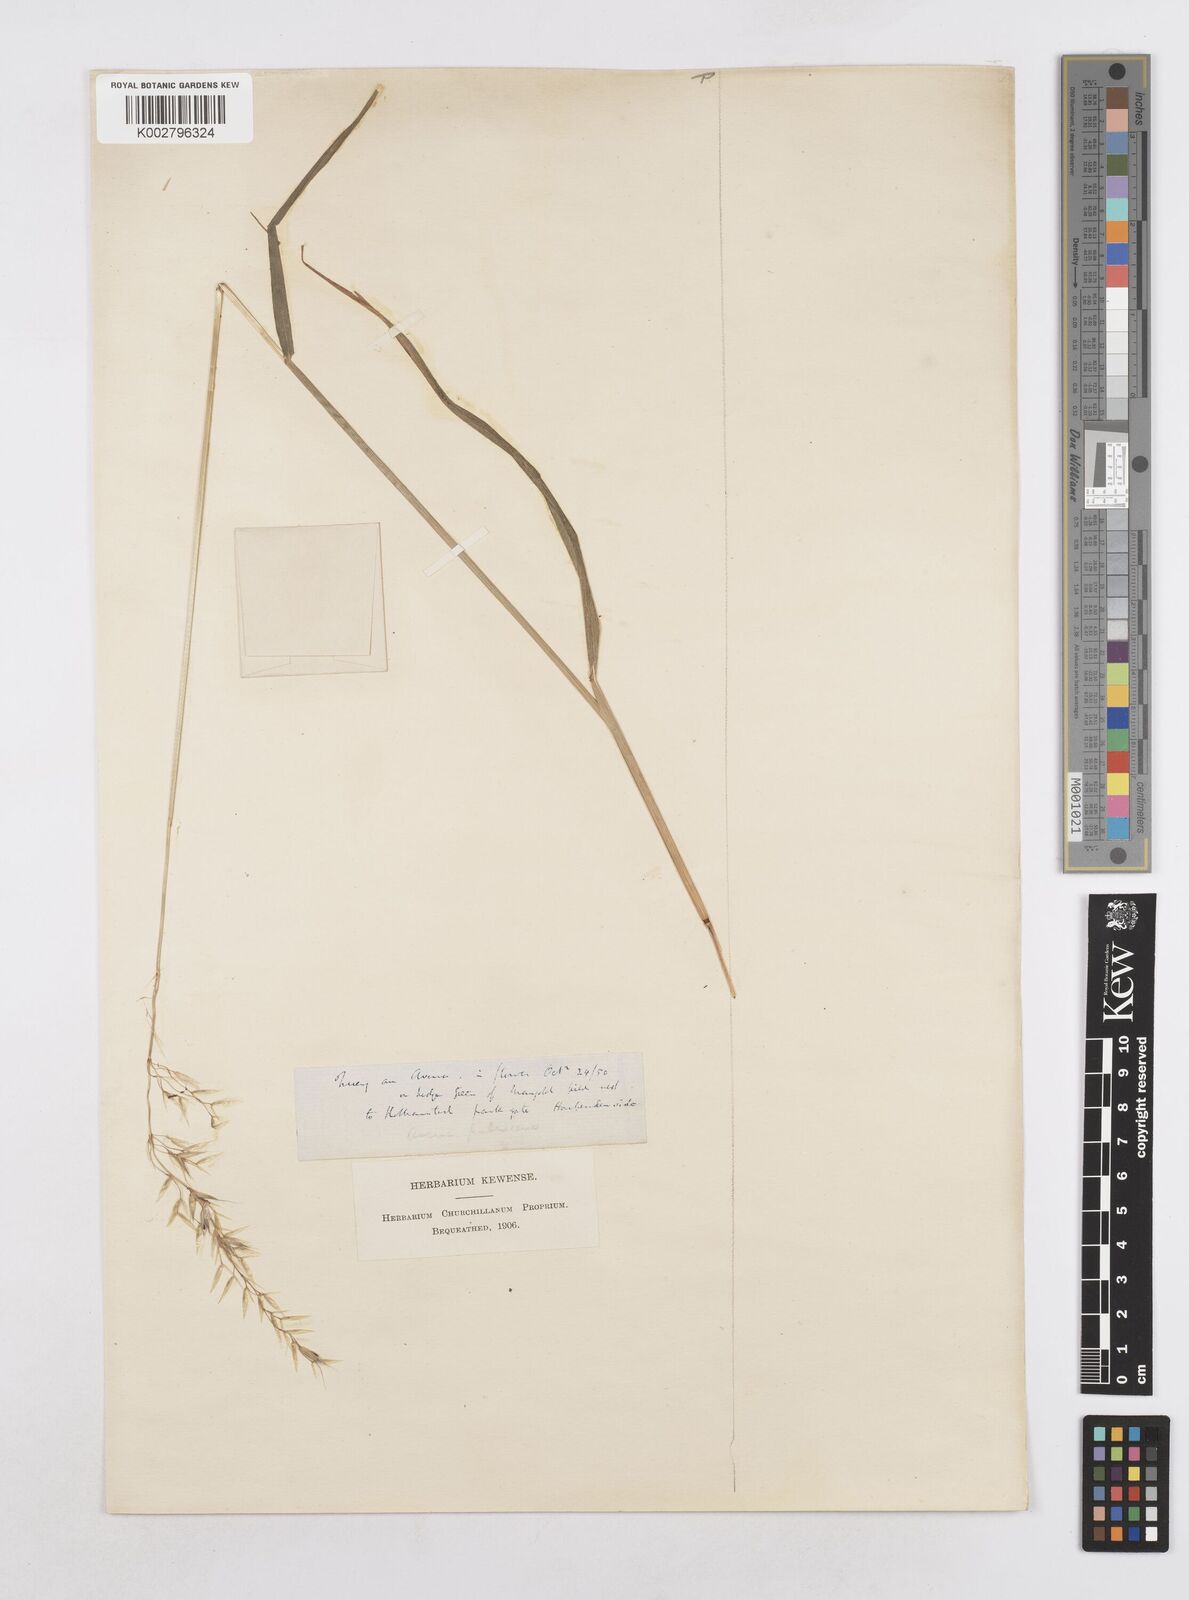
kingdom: Plantae
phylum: Tracheophyta
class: Liliopsida
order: Poales
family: Poaceae
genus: Arrhenatherum
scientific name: Arrhenatherum elatius
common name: Tall oatgrass
